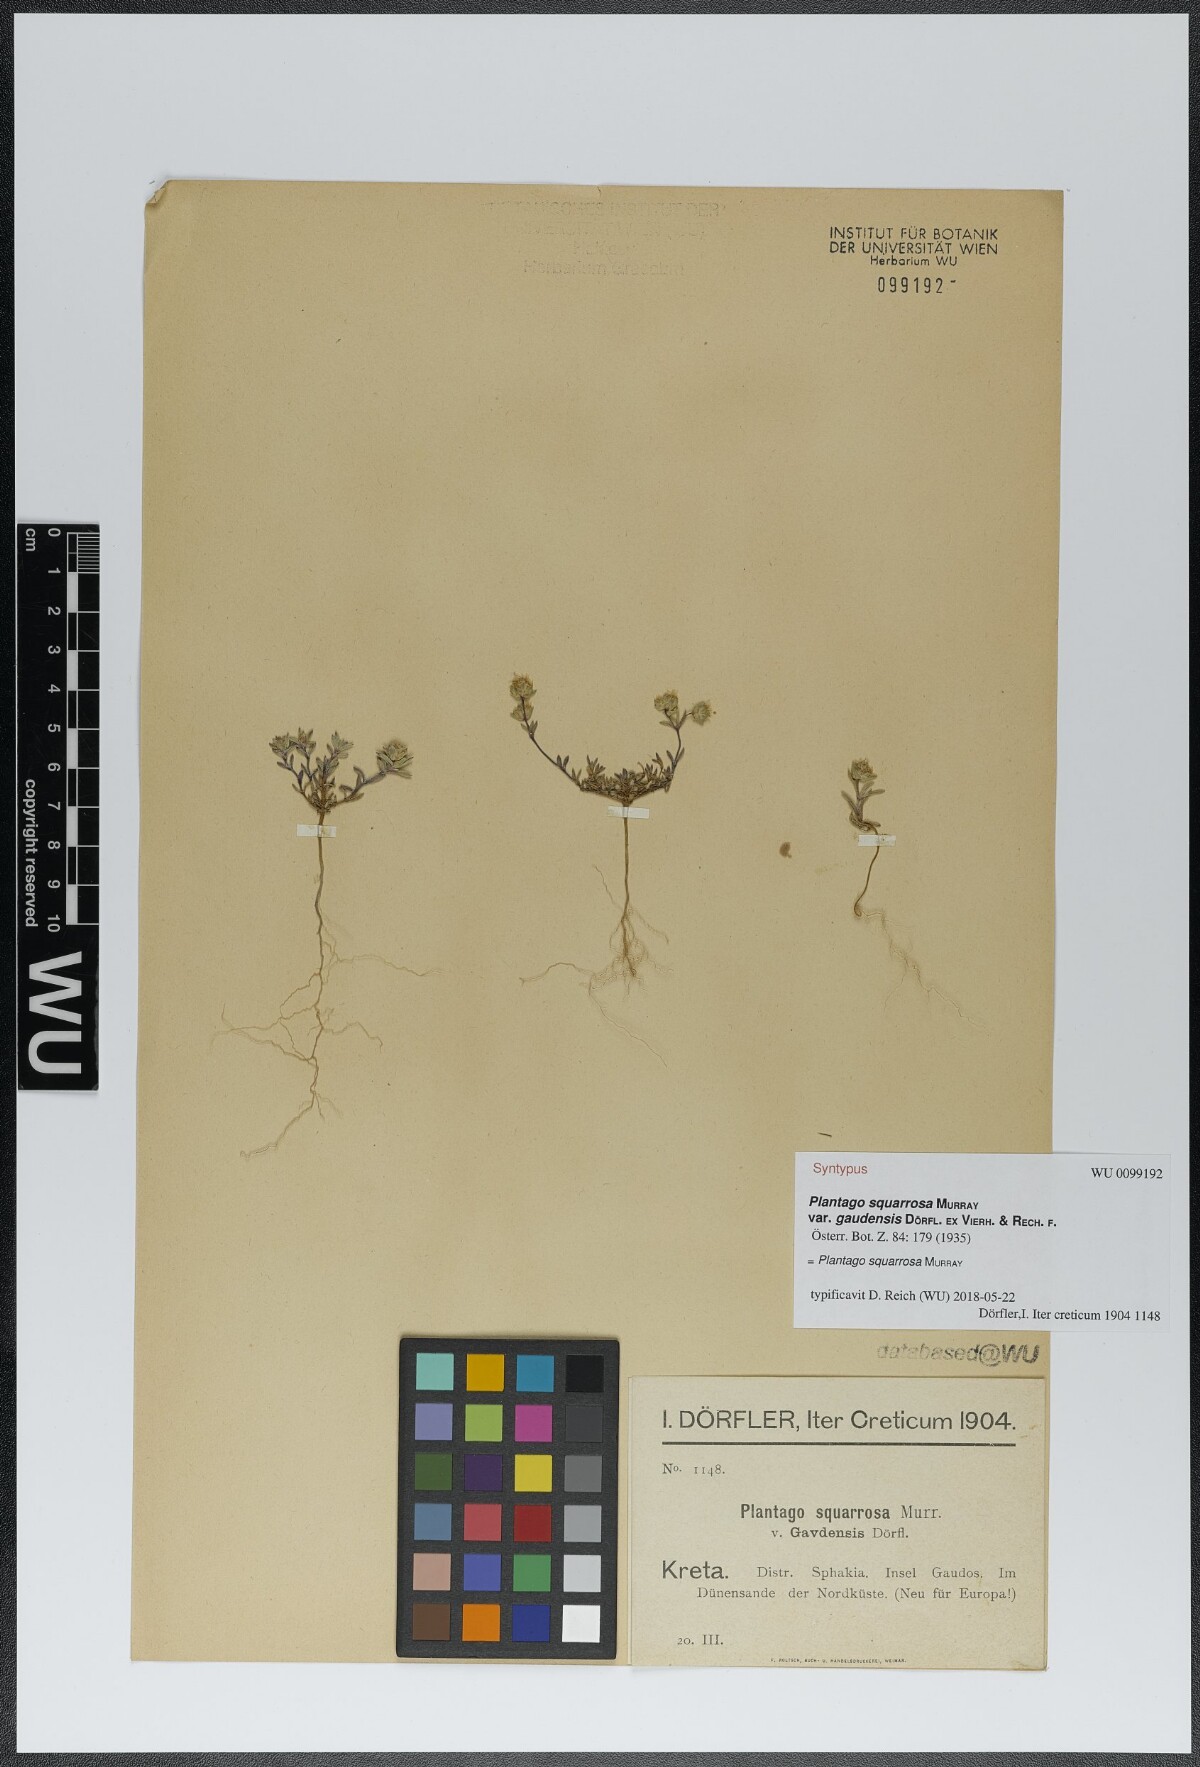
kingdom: Plantae
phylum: Tracheophyta
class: Magnoliopsida
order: Lamiales
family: Plantaginaceae
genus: Plantago
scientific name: Plantago squarrosa
